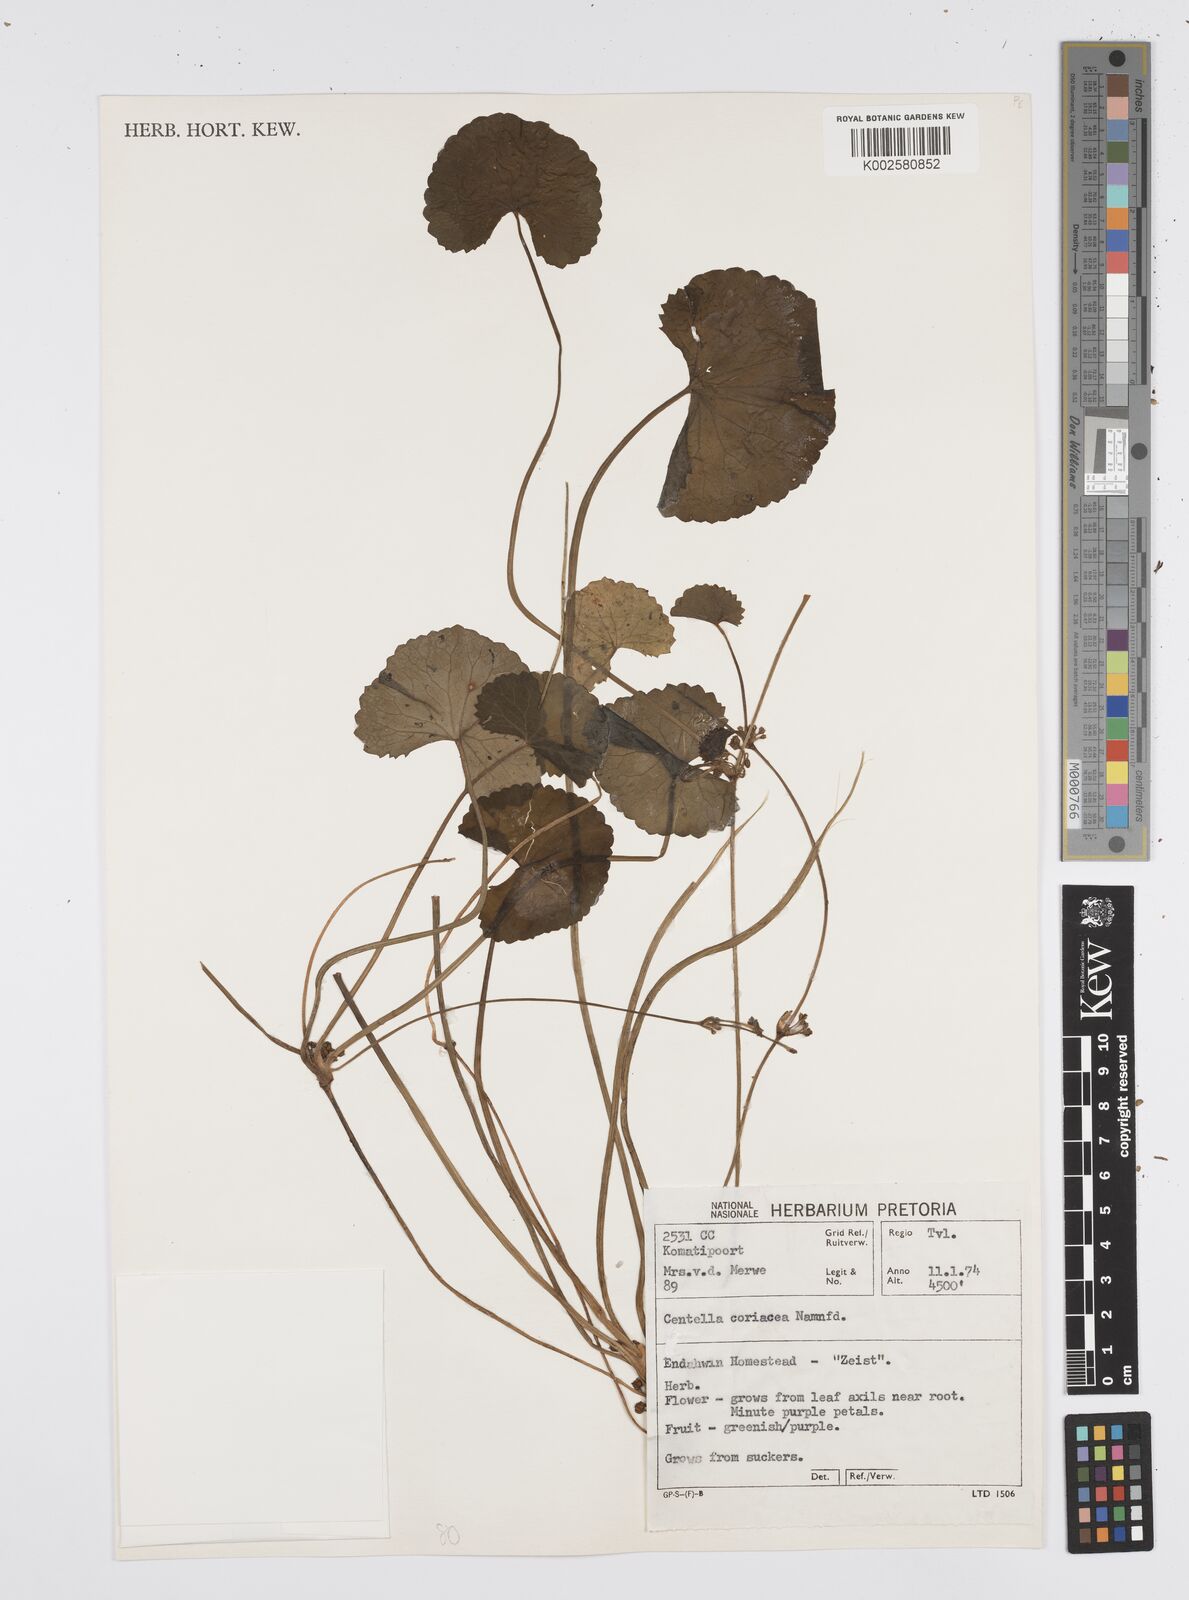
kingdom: Plantae
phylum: Tracheophyta
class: Magnoliopsida
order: Apiales
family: Apiaceae
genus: Centella
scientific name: Centella coriacea
